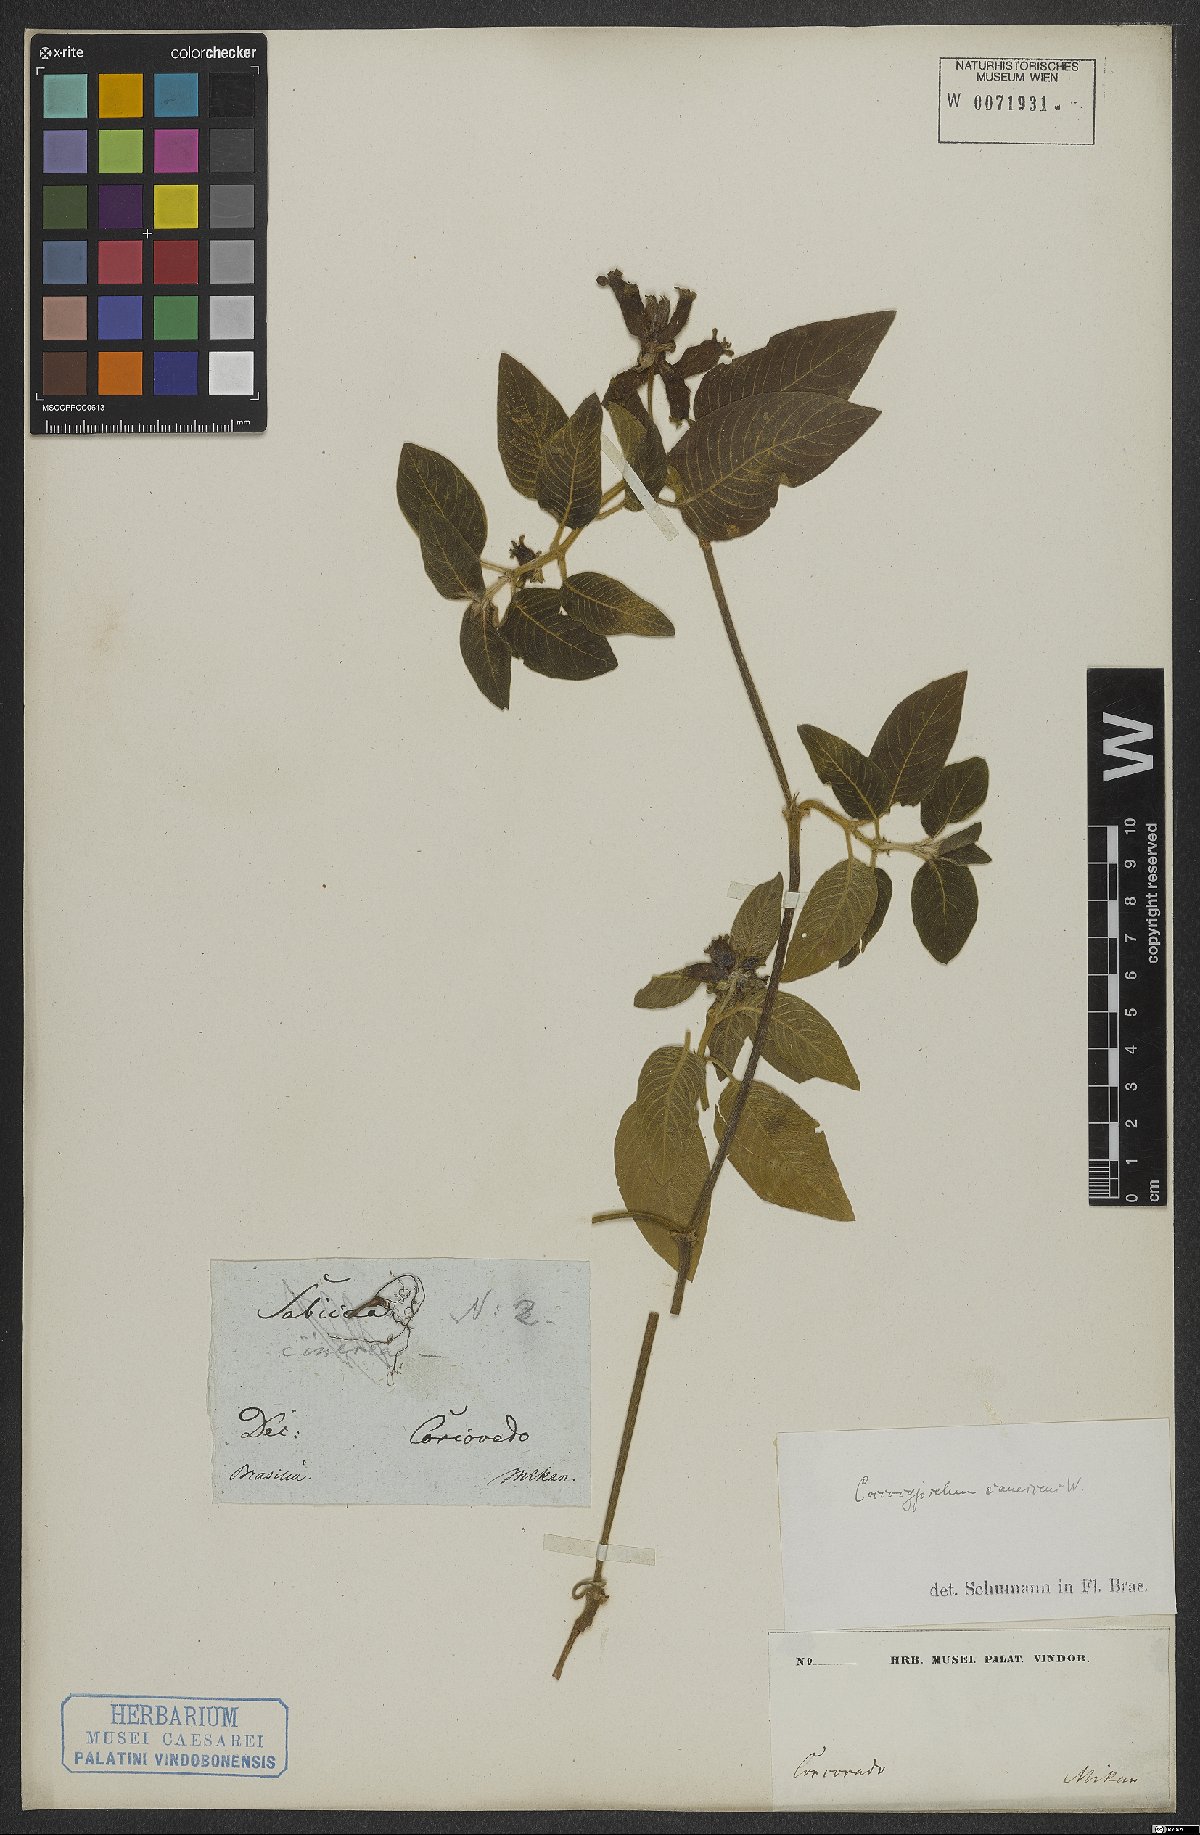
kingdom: Plantae
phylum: Tracheophyta
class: Magnoliopsida
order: Gentianales
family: Rubiaceae
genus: Coccocypselum
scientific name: Coccocypselum lanceolatum
